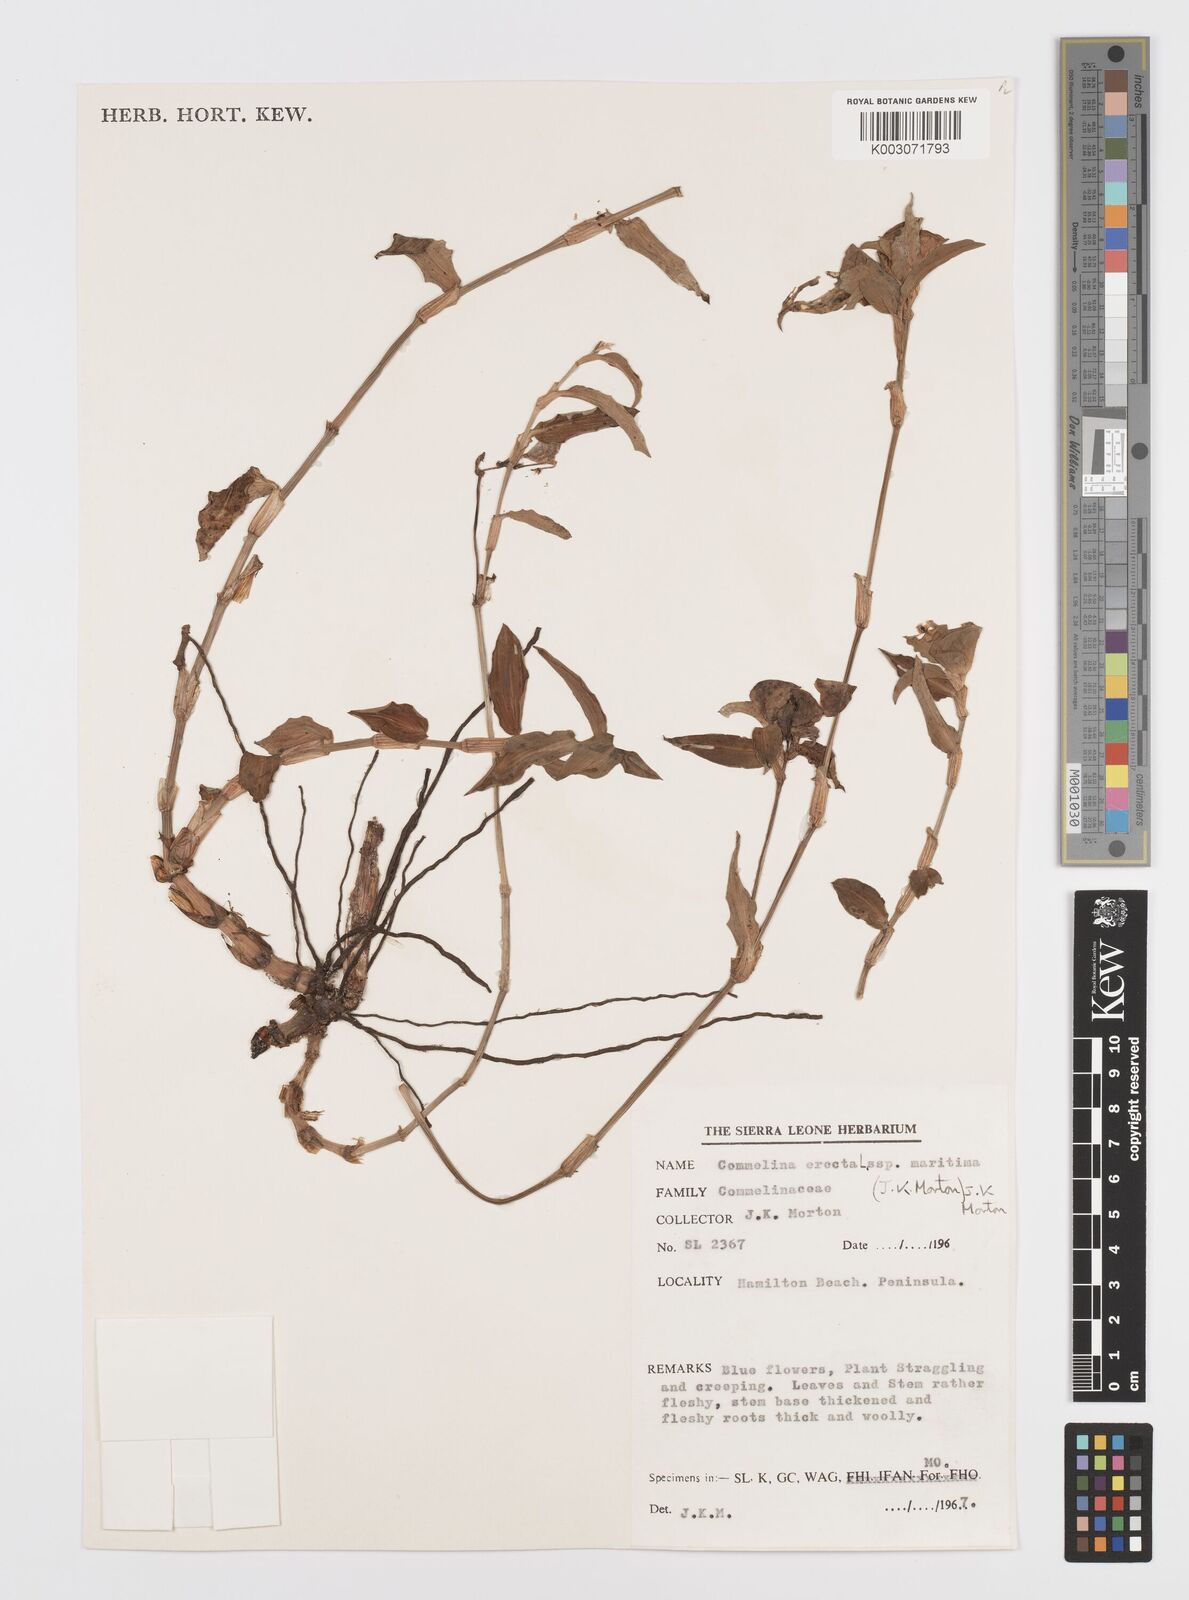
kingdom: Plantae
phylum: Tracheophyta
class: Liliopsida
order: Commelinales
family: Commelinaceae
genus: Commelina
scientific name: Commelina erecta
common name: Blousel blommetjie
